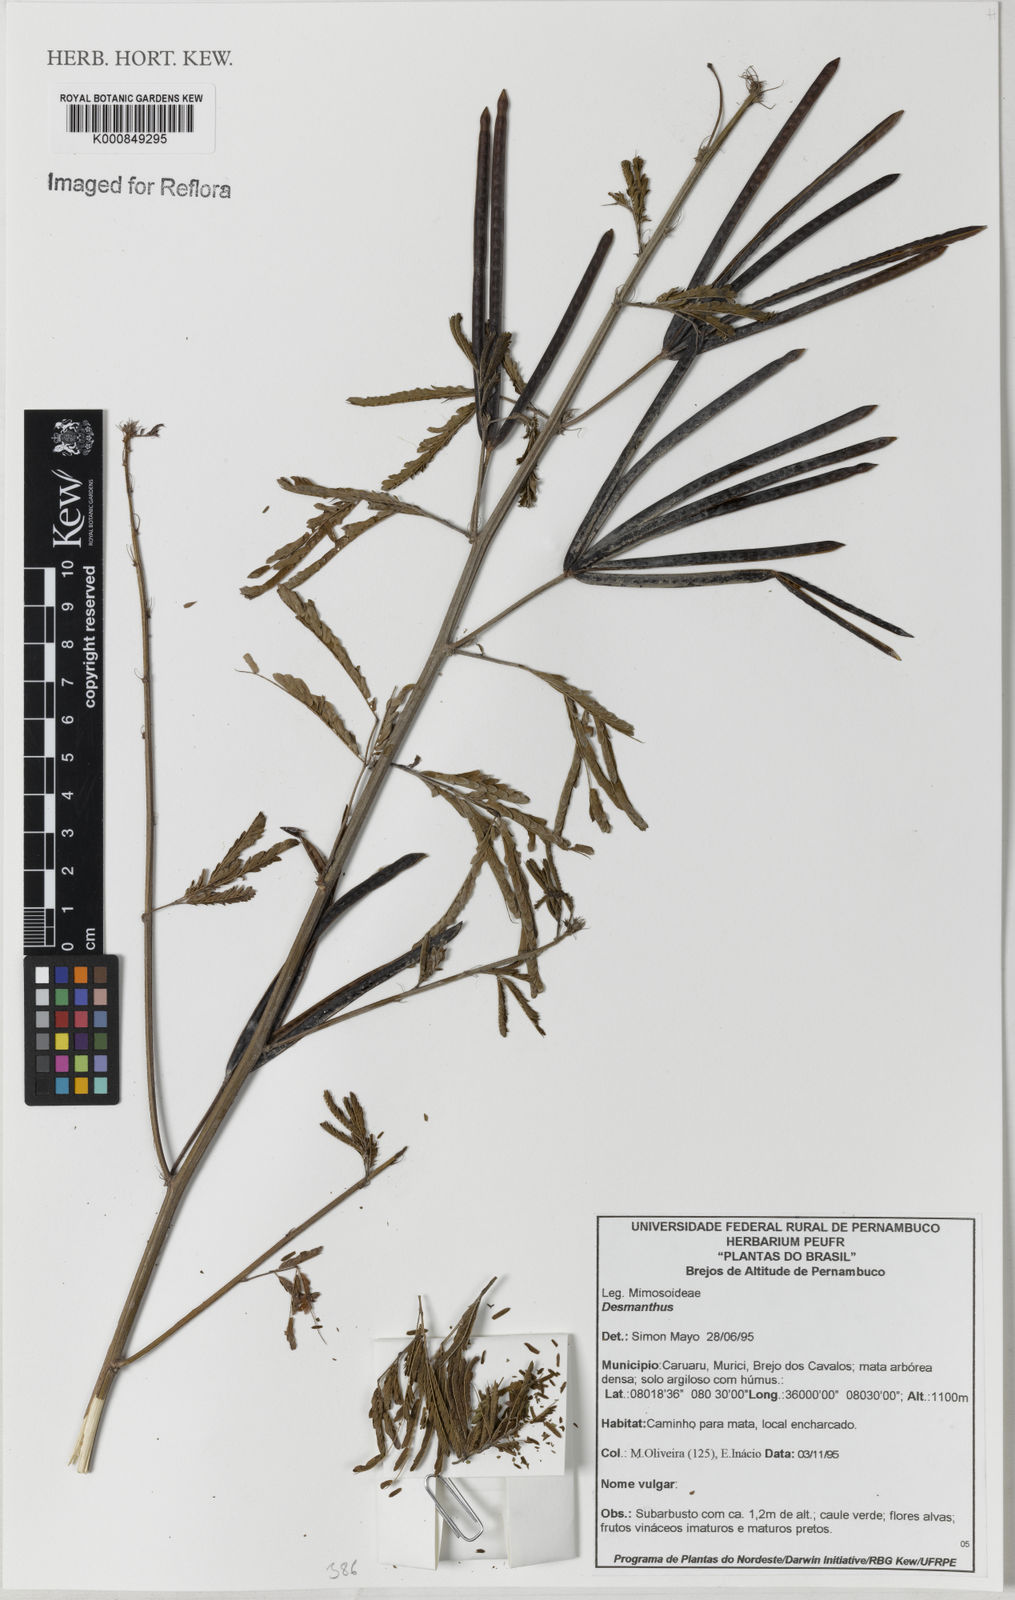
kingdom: Plantae
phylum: Tracheophyta
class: Magnoliopsida
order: Fabales
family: Fabaceae
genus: Desmanthus
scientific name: Desmanthus
